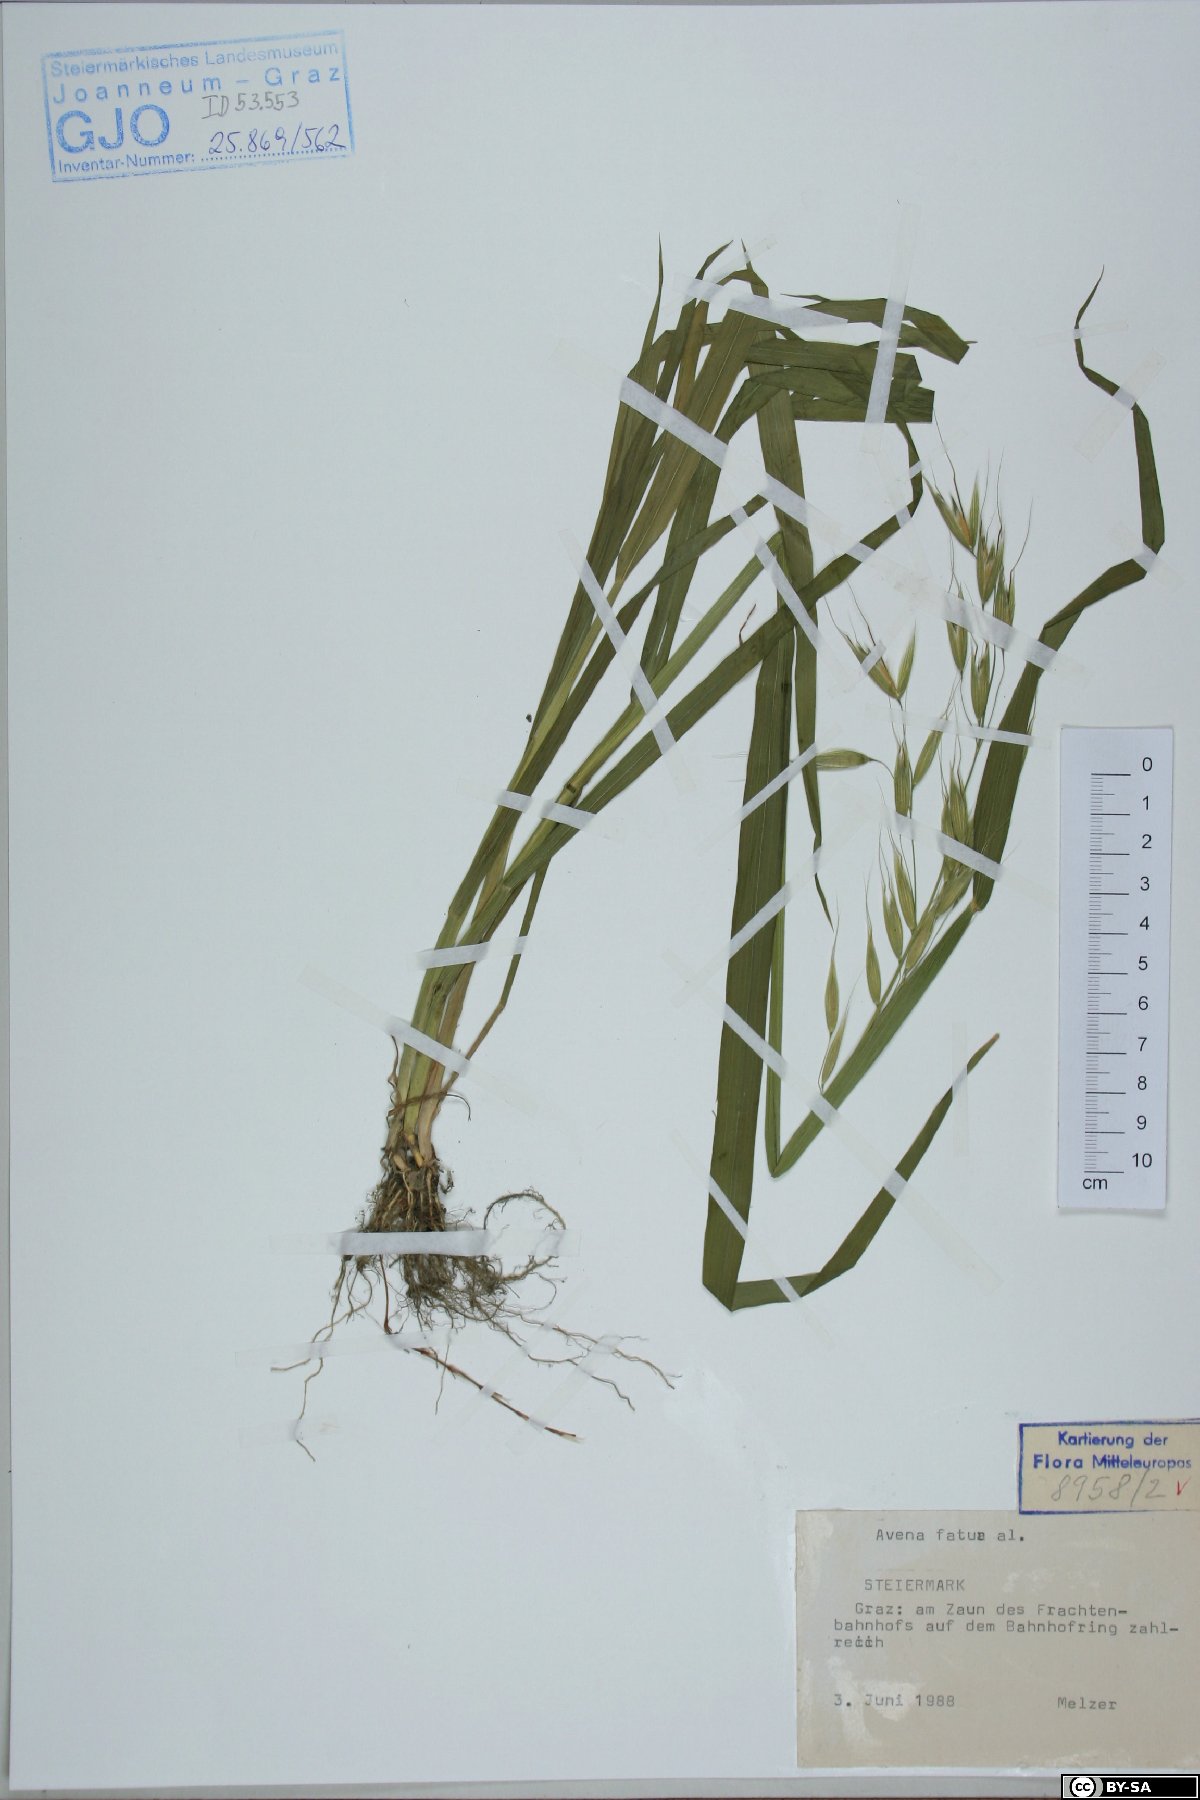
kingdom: Plantae
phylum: Tracheophyta
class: Liliopsida
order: Poales
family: Poaceae
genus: Avena
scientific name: Avena fatua
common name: Wild oat
